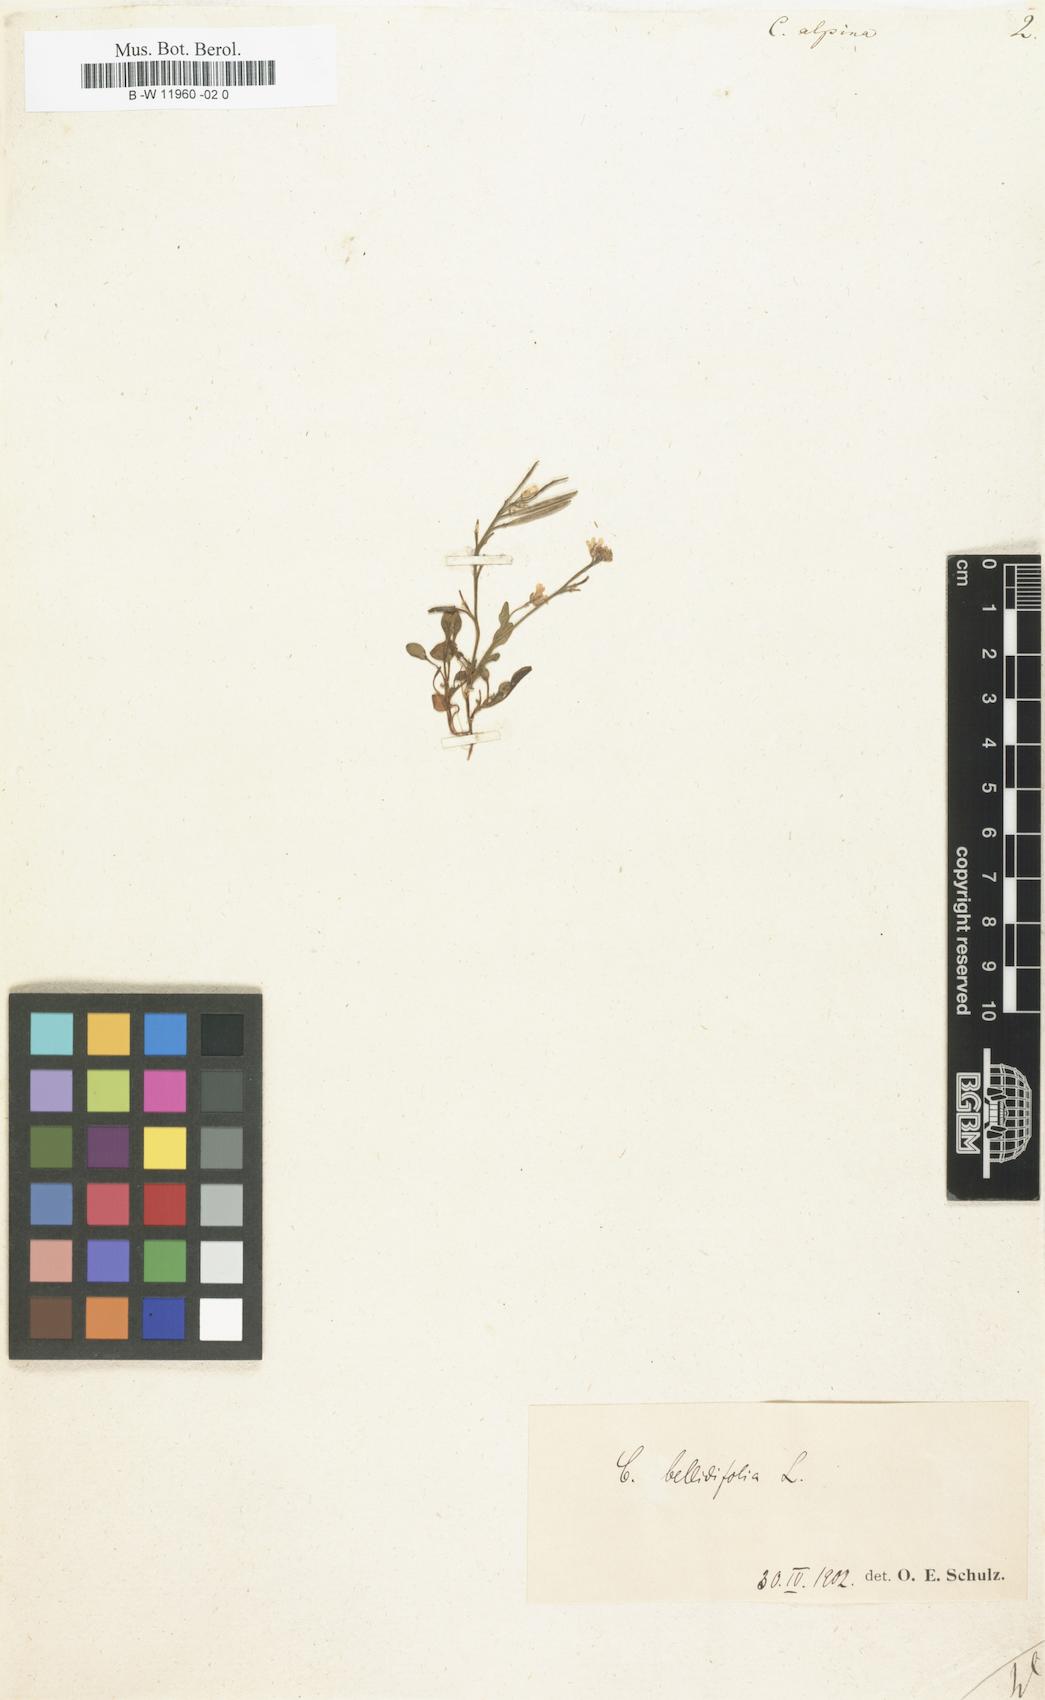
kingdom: Plantae
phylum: Tracheophyta
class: Magnoliopsida
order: Brassicales
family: Brassicaceae
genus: Cardamine
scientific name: Cardamine bellidifolia
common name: Alpine bittercress
